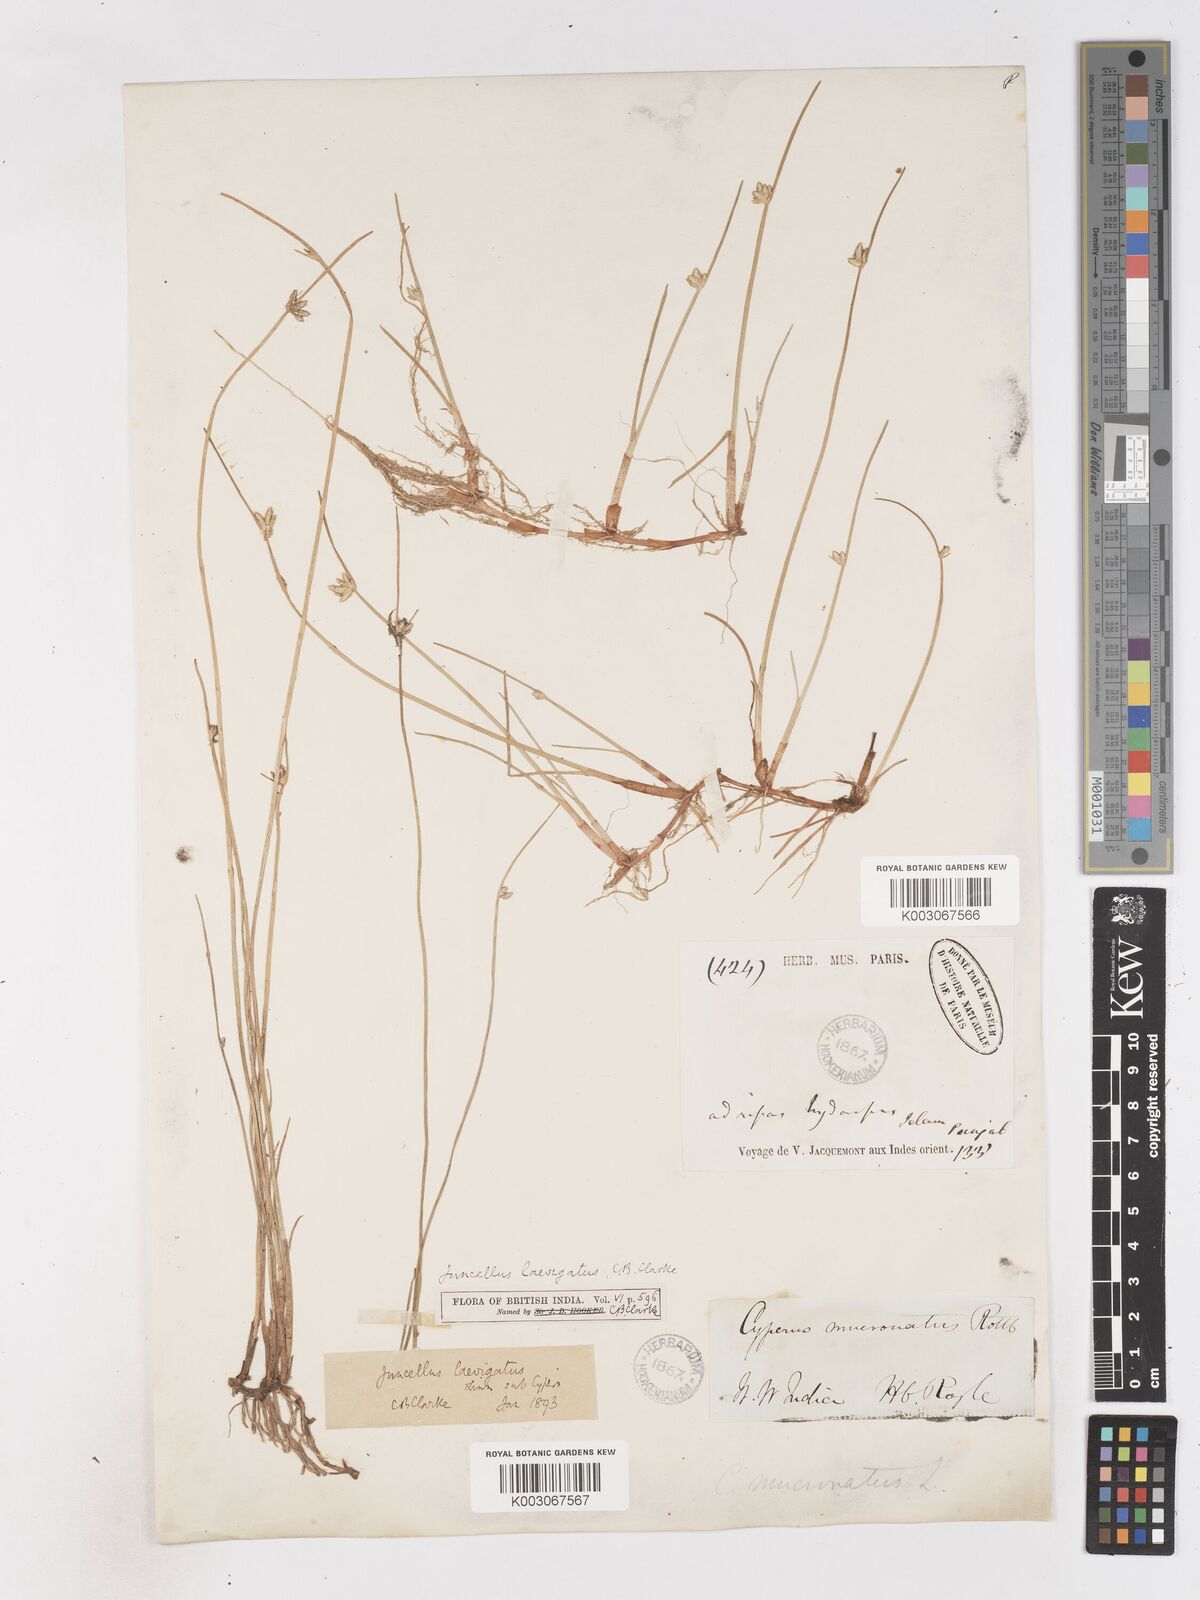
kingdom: Plantae
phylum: Tracheophyta
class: Liliopsida
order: Poales
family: Cyperaceae
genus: Cyperus
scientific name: Cyperus laevigatus
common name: Smooth flat sedge
